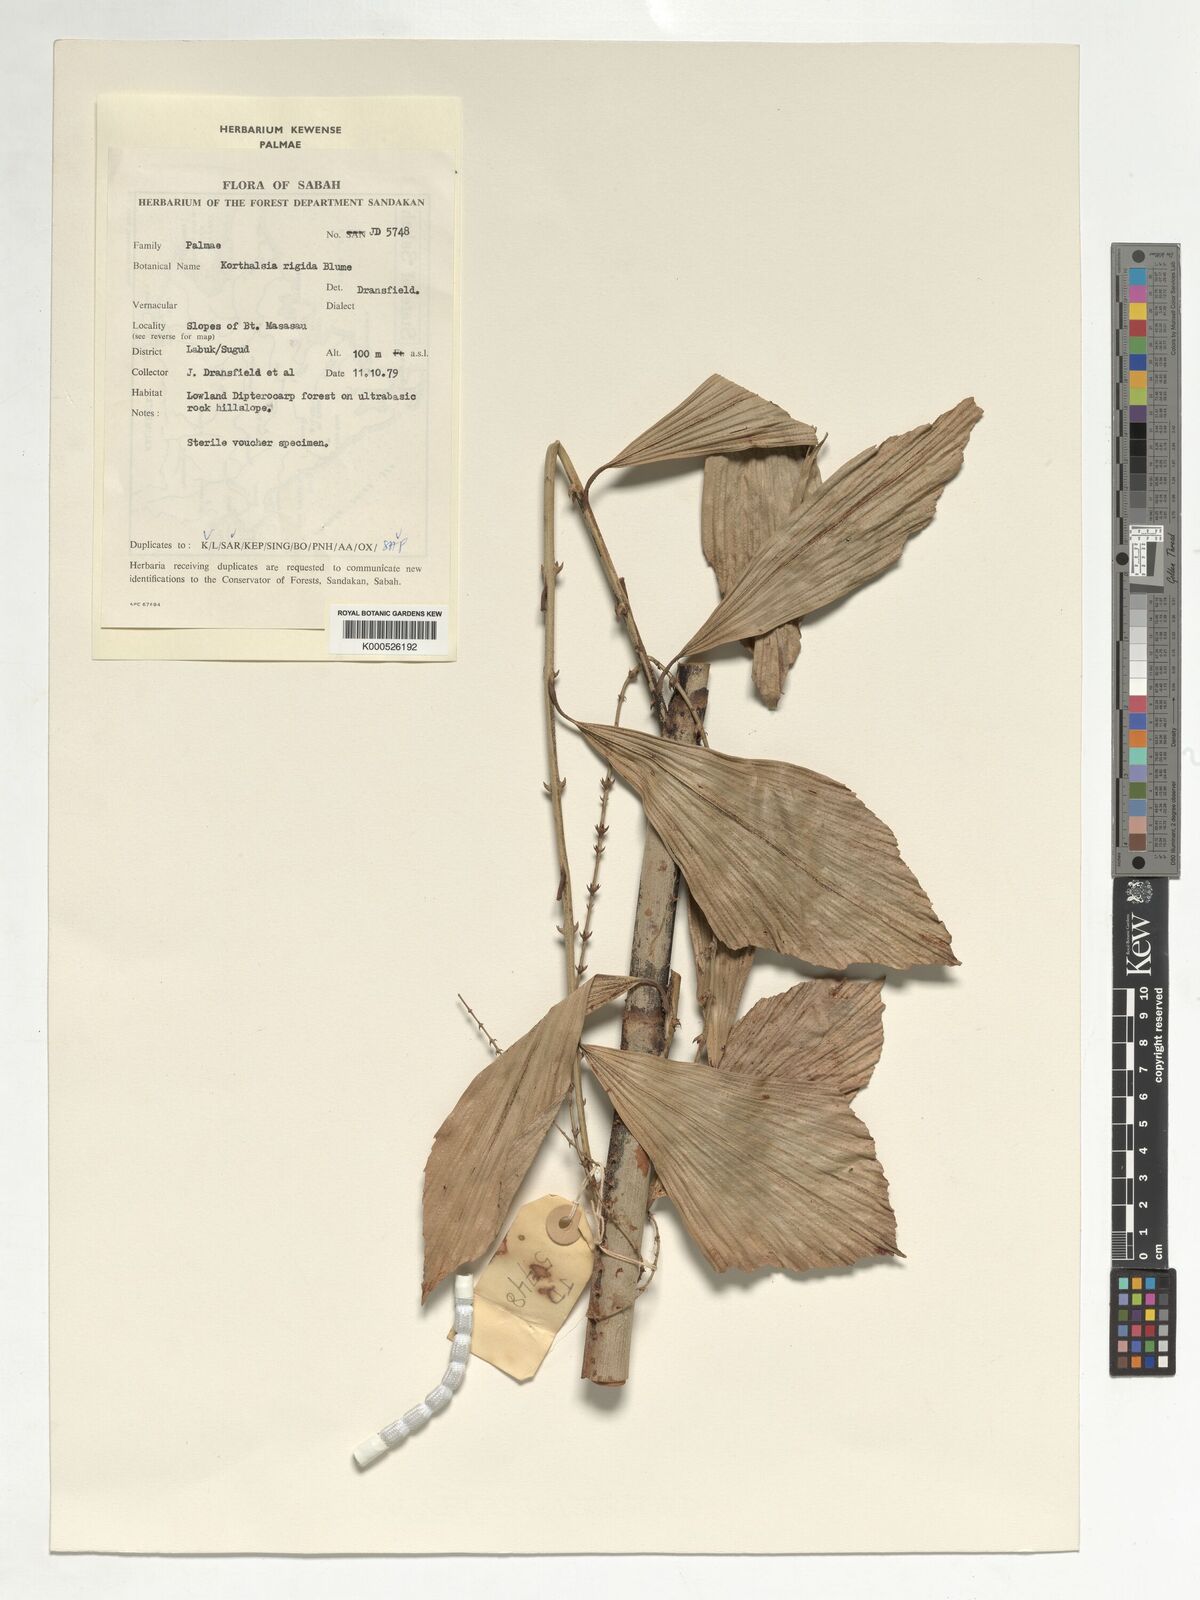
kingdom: Plantae
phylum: Tracheophyta
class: Liliopsida
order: Arecales
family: Arecaceae
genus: Korthalsia
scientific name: Korthalsia rigida
